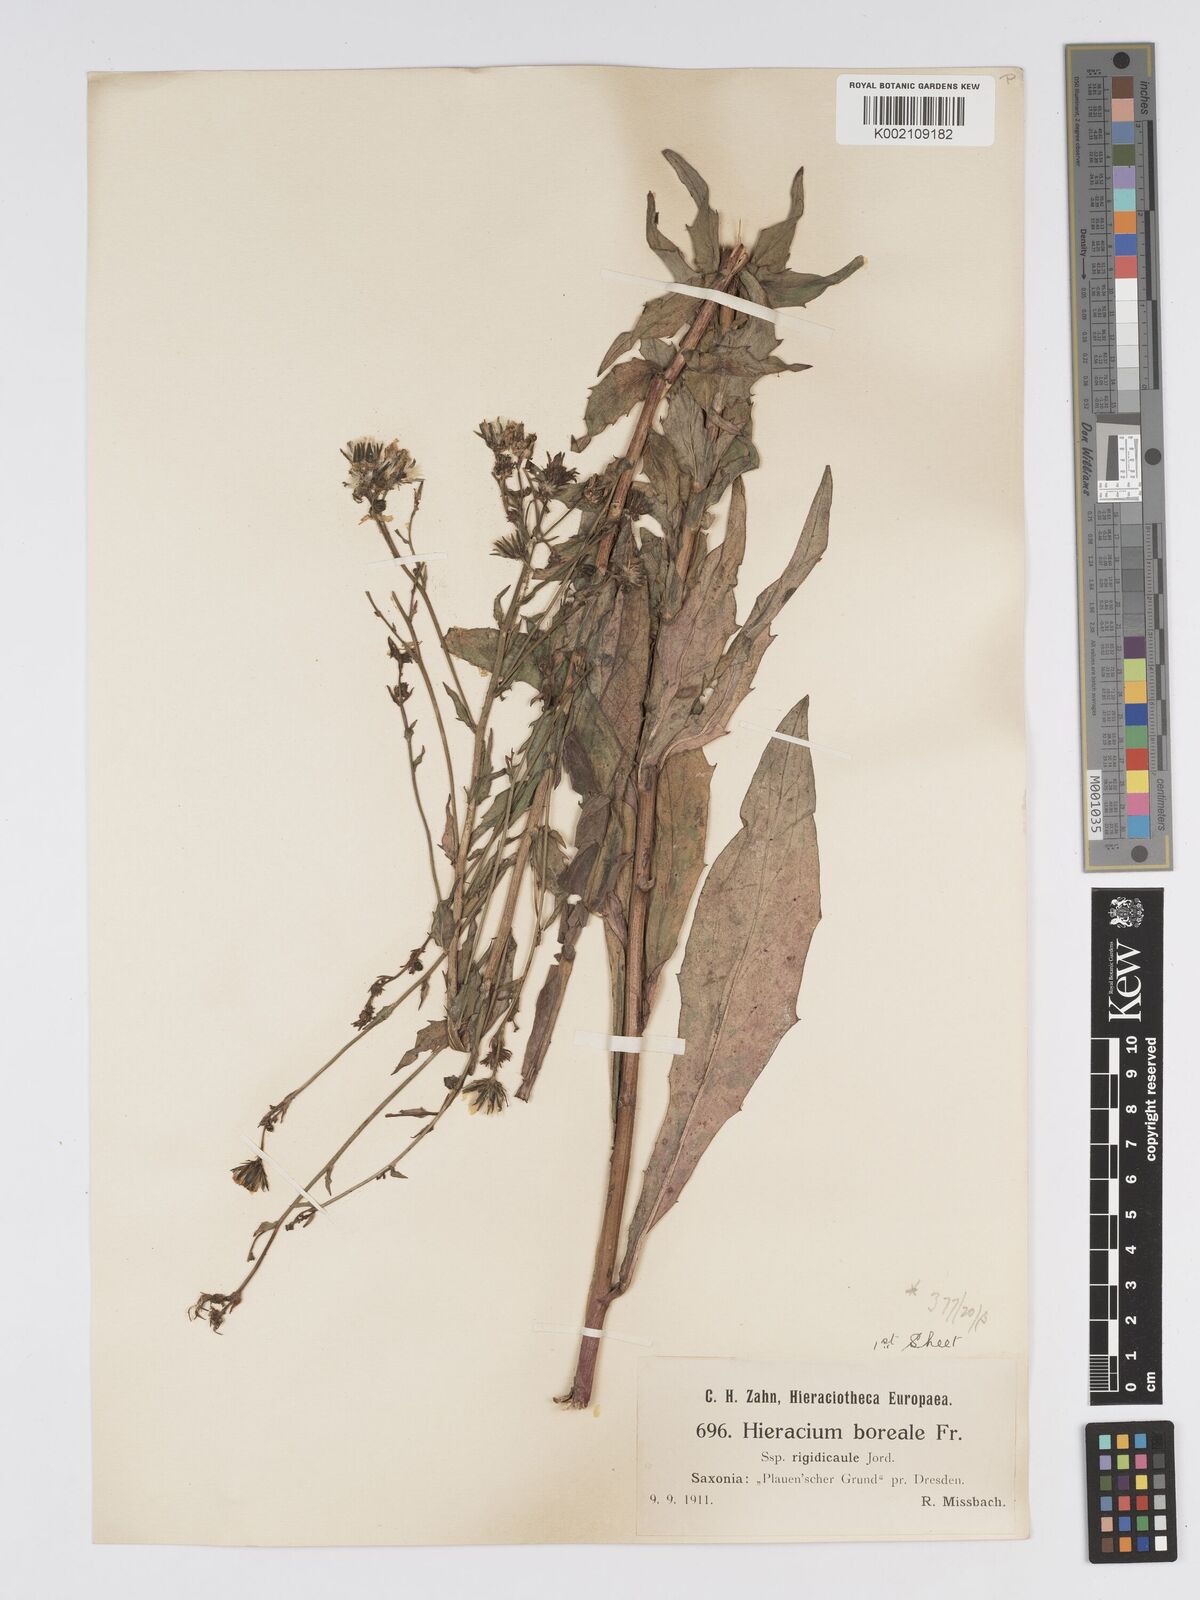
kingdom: Plantae
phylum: Tracheophyta
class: Magnoliopsida
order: Asterales
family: Asteraceae
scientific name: Asteraceae
